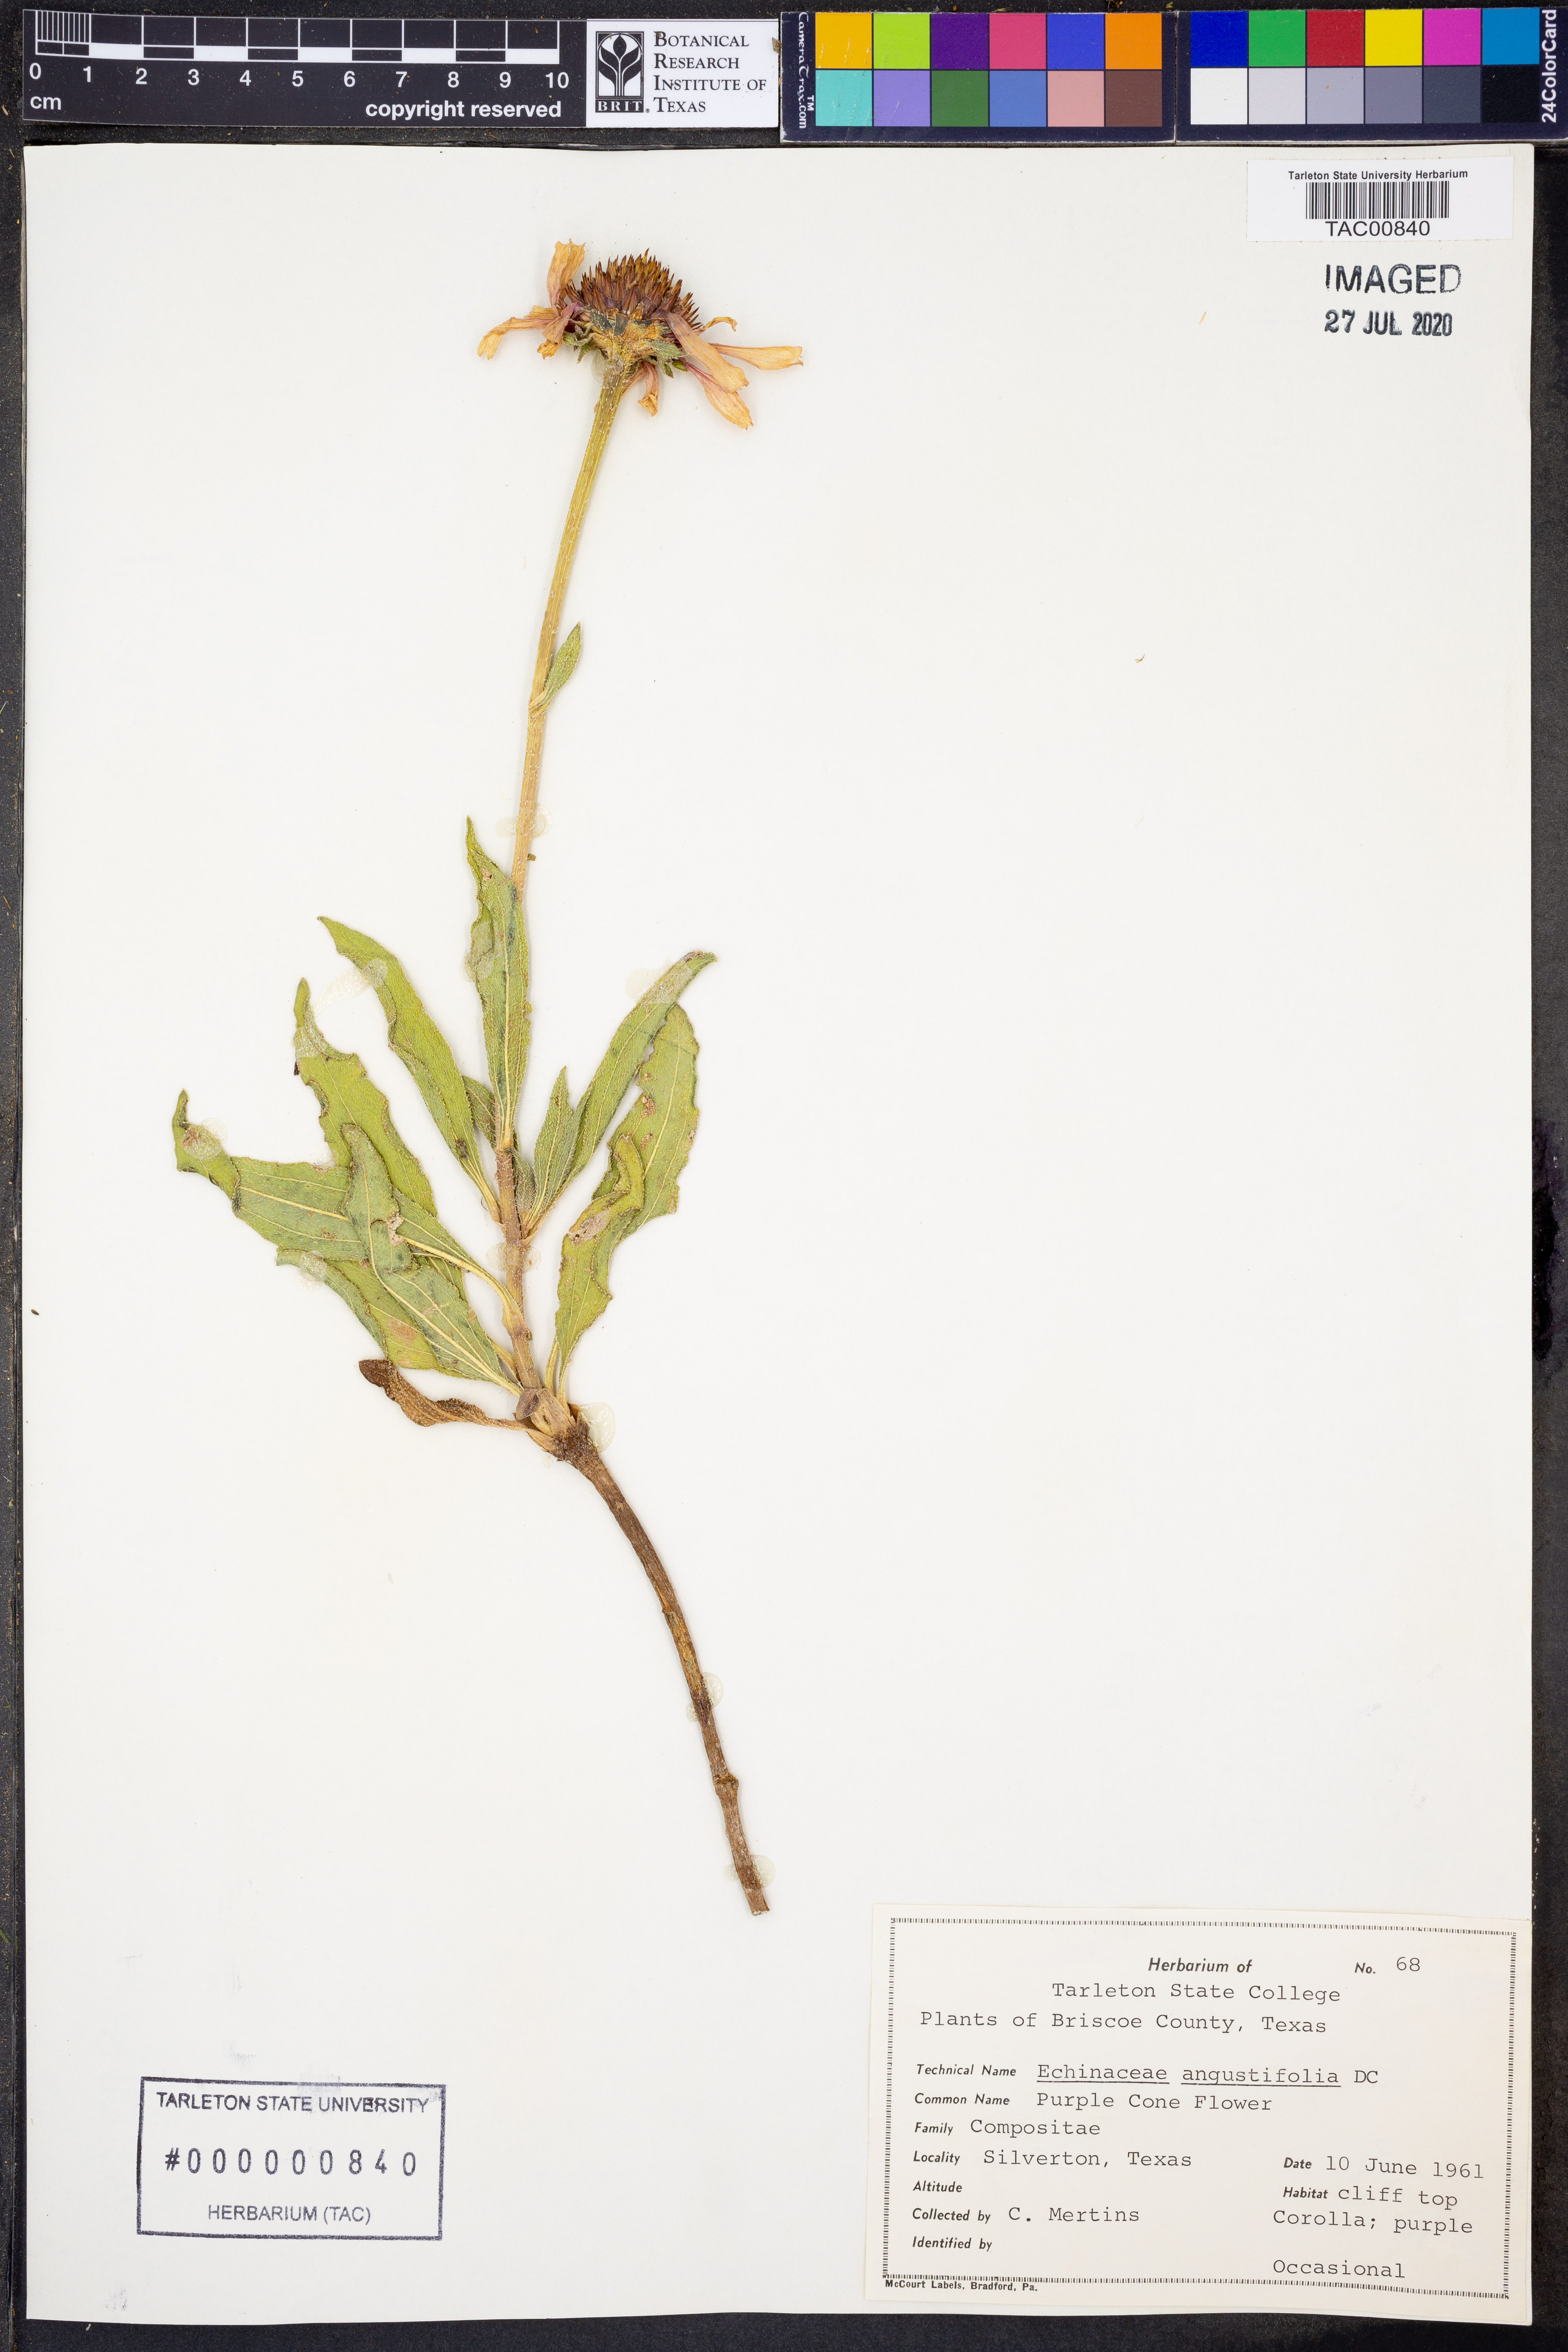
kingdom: Plantae
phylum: Tracheophyta
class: Magnoliopsida
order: Asterales
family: Asteraceae
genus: Echinacea
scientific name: Echinacea angustifolia
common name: Black-sampson echinacea
